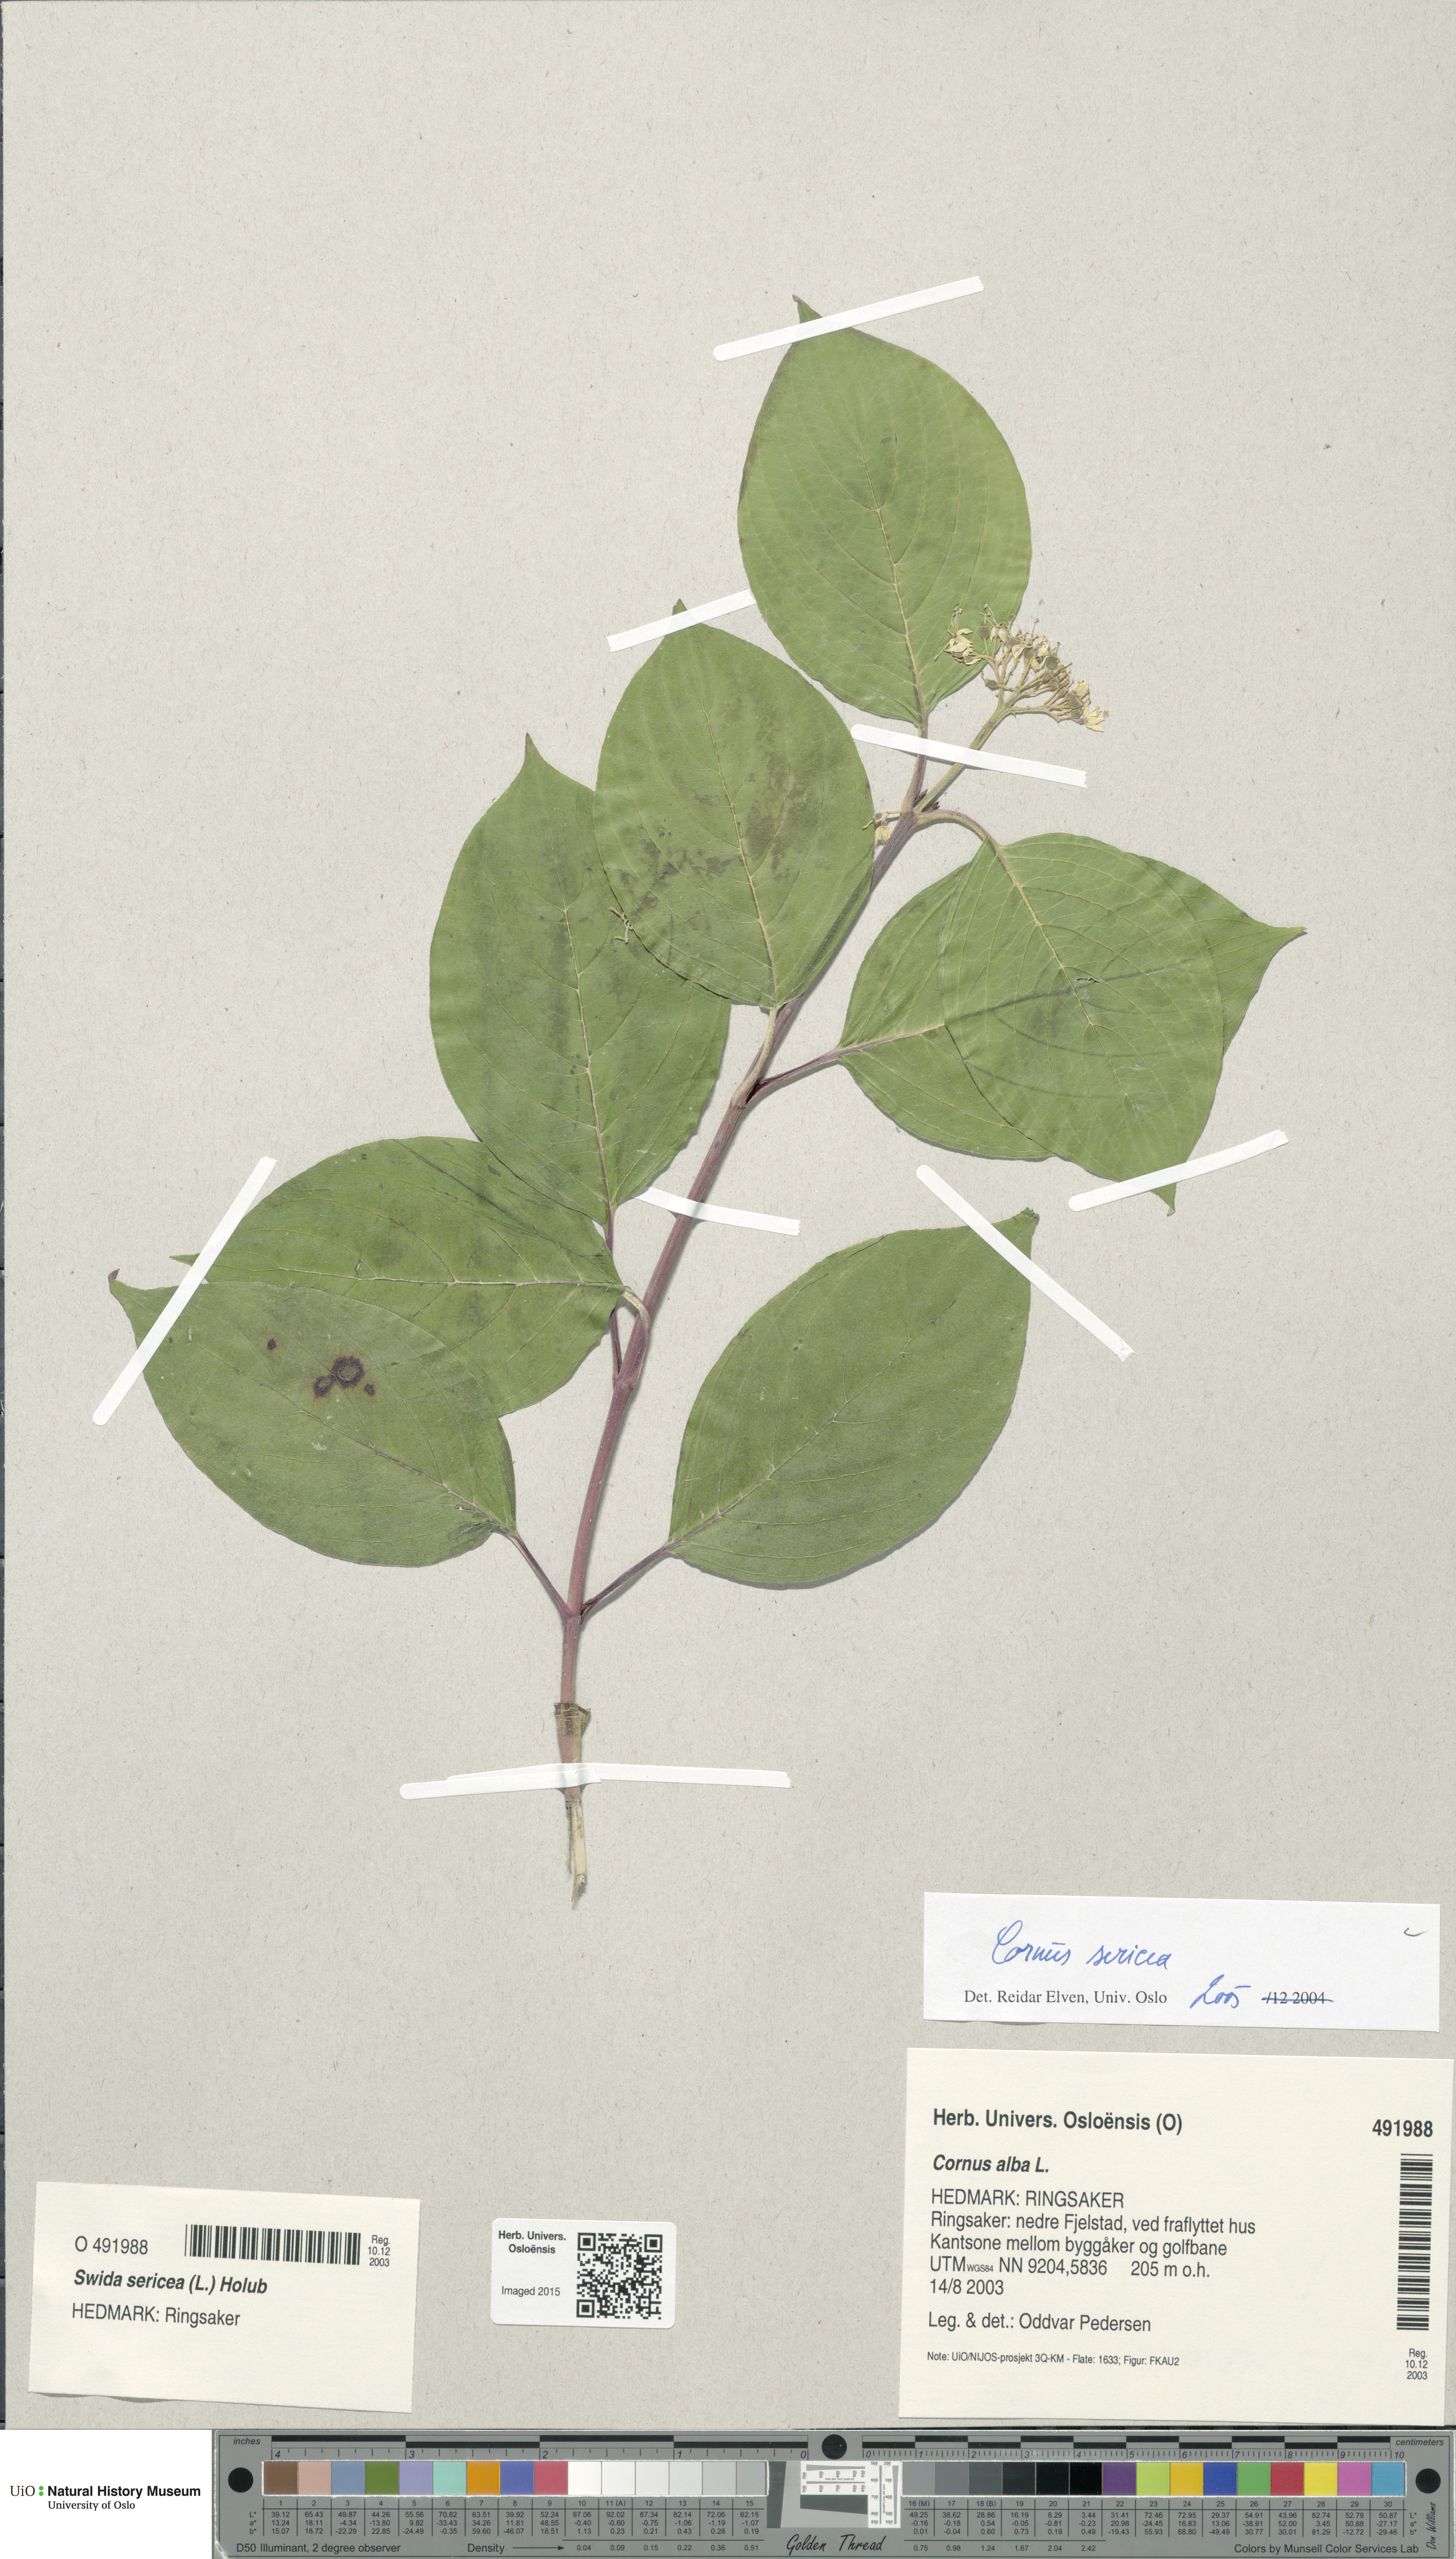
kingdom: Plantae
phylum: Tracheophyta
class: Magnoliopsida
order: Cornales
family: Cornaceae
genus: Cornus
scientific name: Cornus alba
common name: White dogwood
